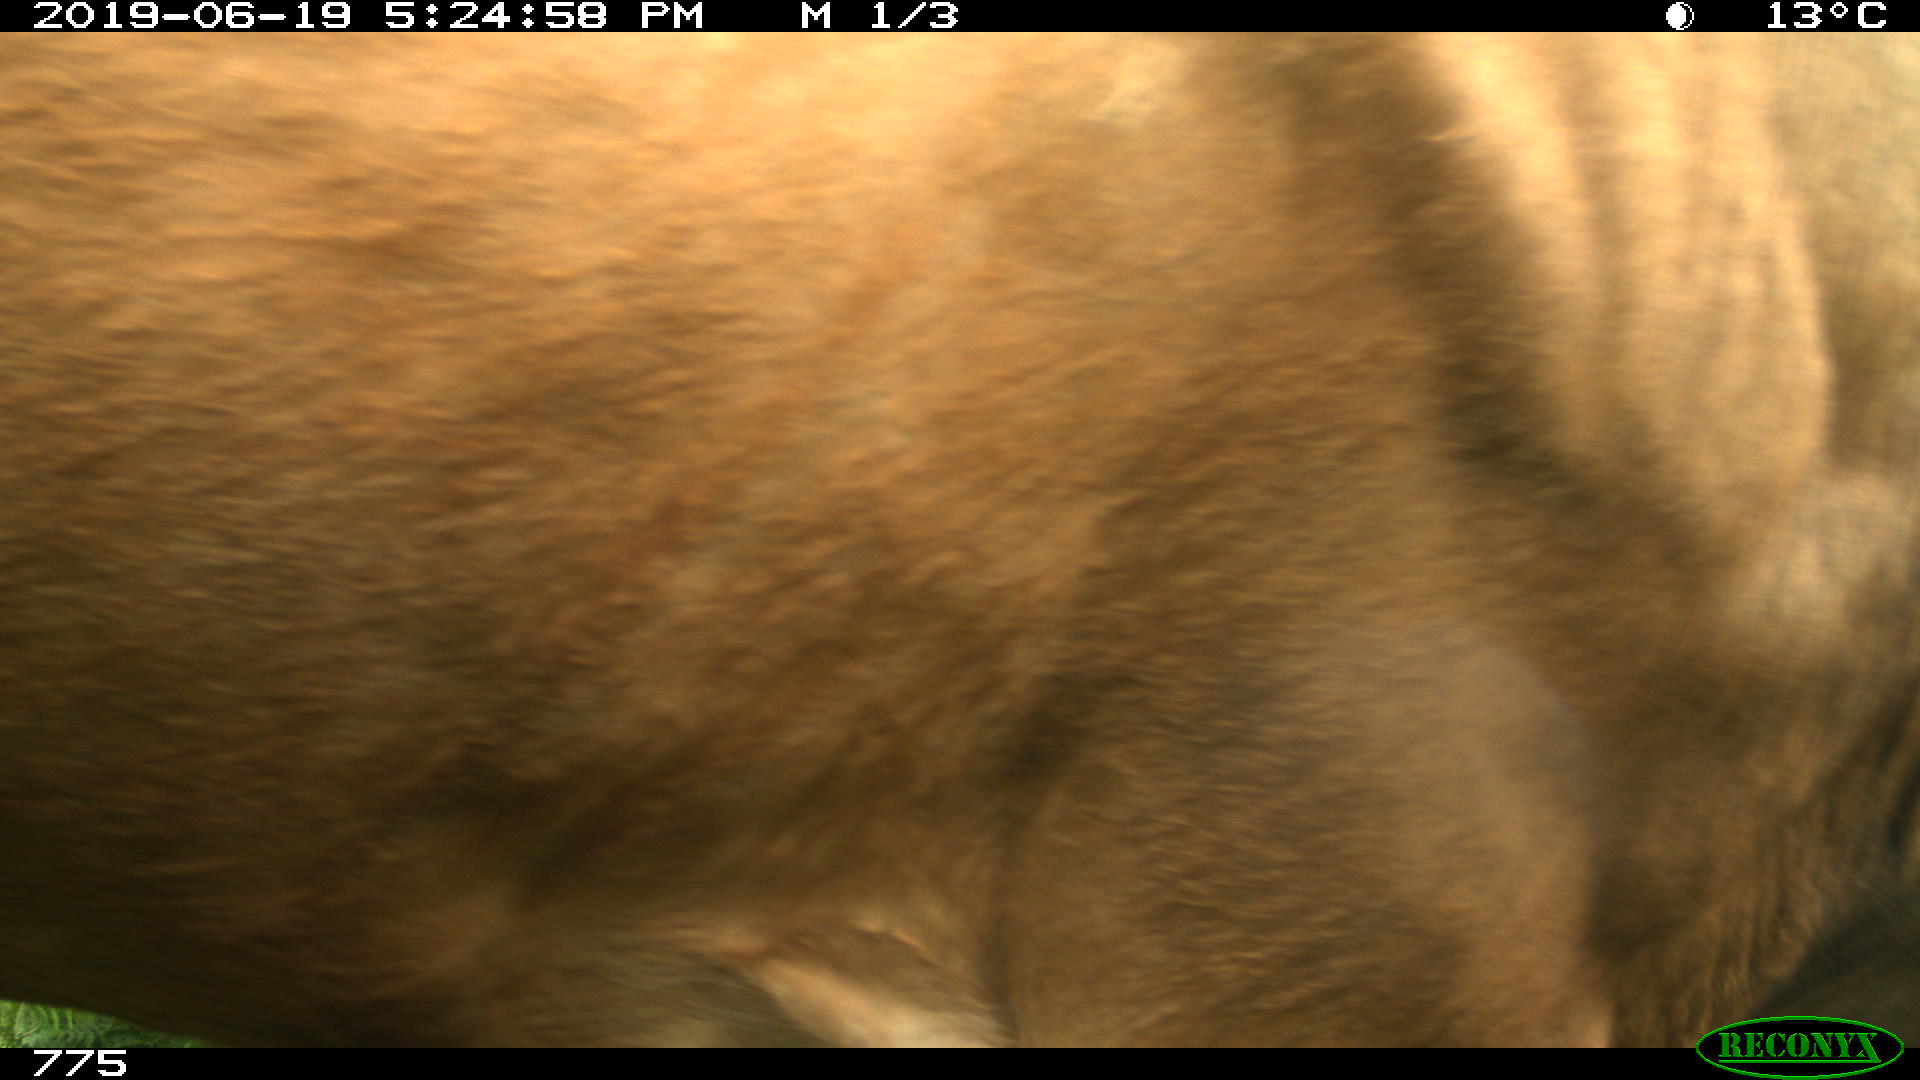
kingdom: Animalia
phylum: Chordata
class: Mammalia
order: Artiodactyla
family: Bovidae
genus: Bos
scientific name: Bos taurus
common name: Domesticated cattle
